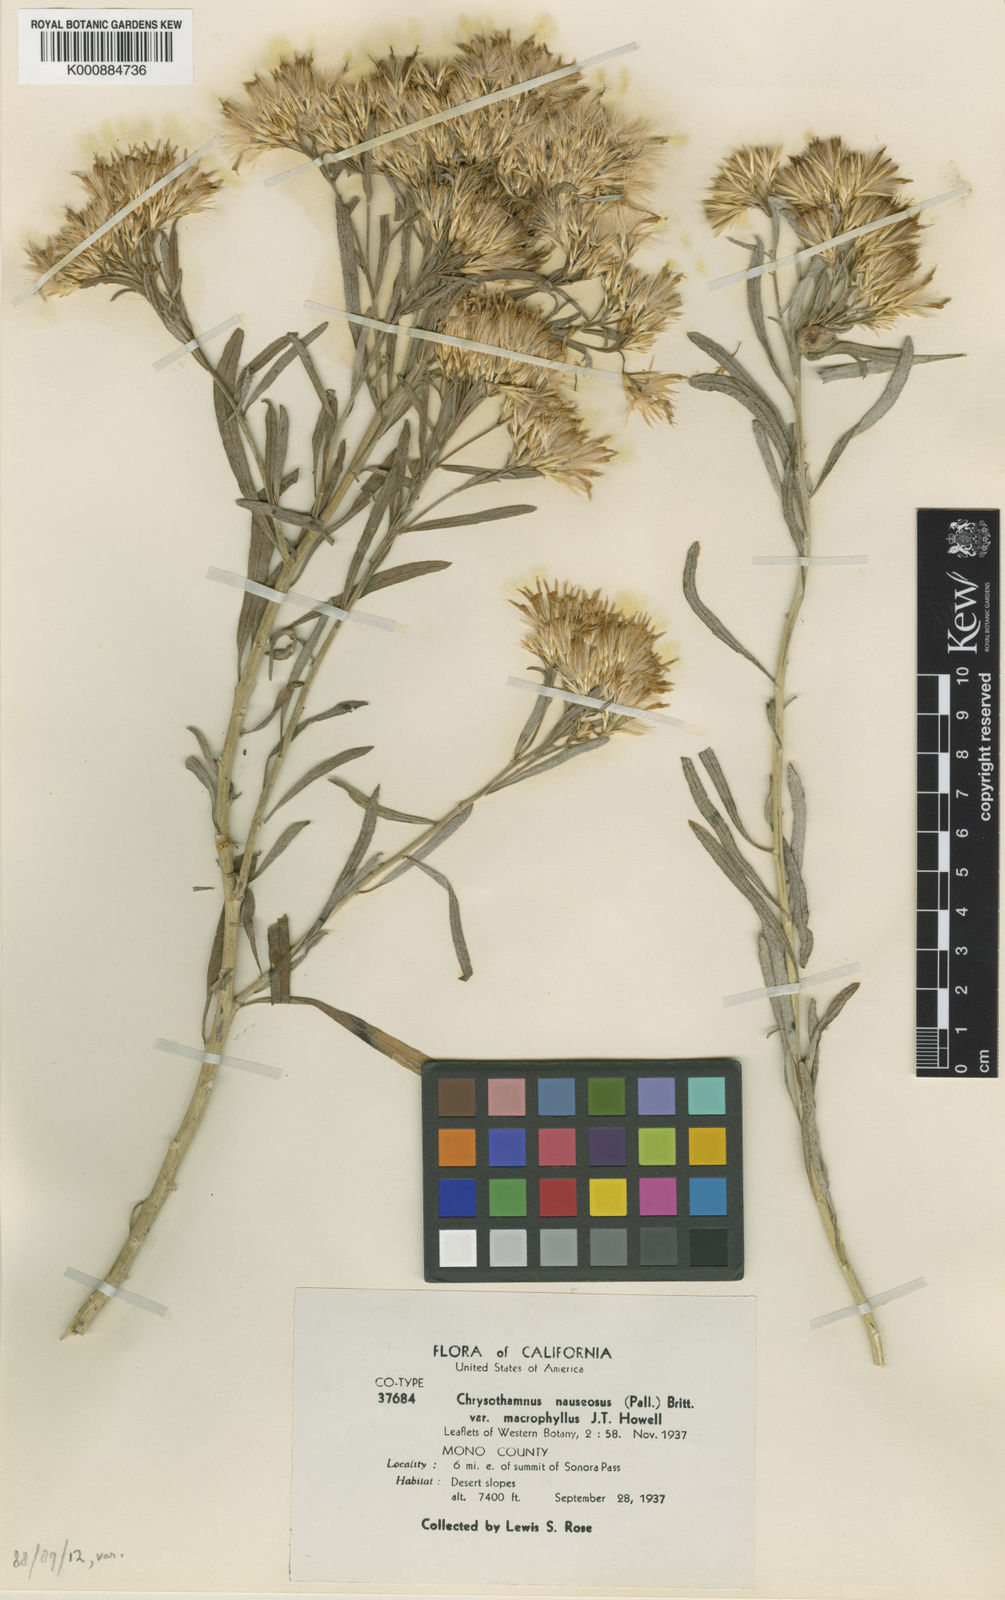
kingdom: Plantae
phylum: Tracheophyta
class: Magnoliopsida
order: Asterales
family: Asteraceae
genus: Ericameria
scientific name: Ericameria nauseosa
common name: Rubber rabbitbrush
